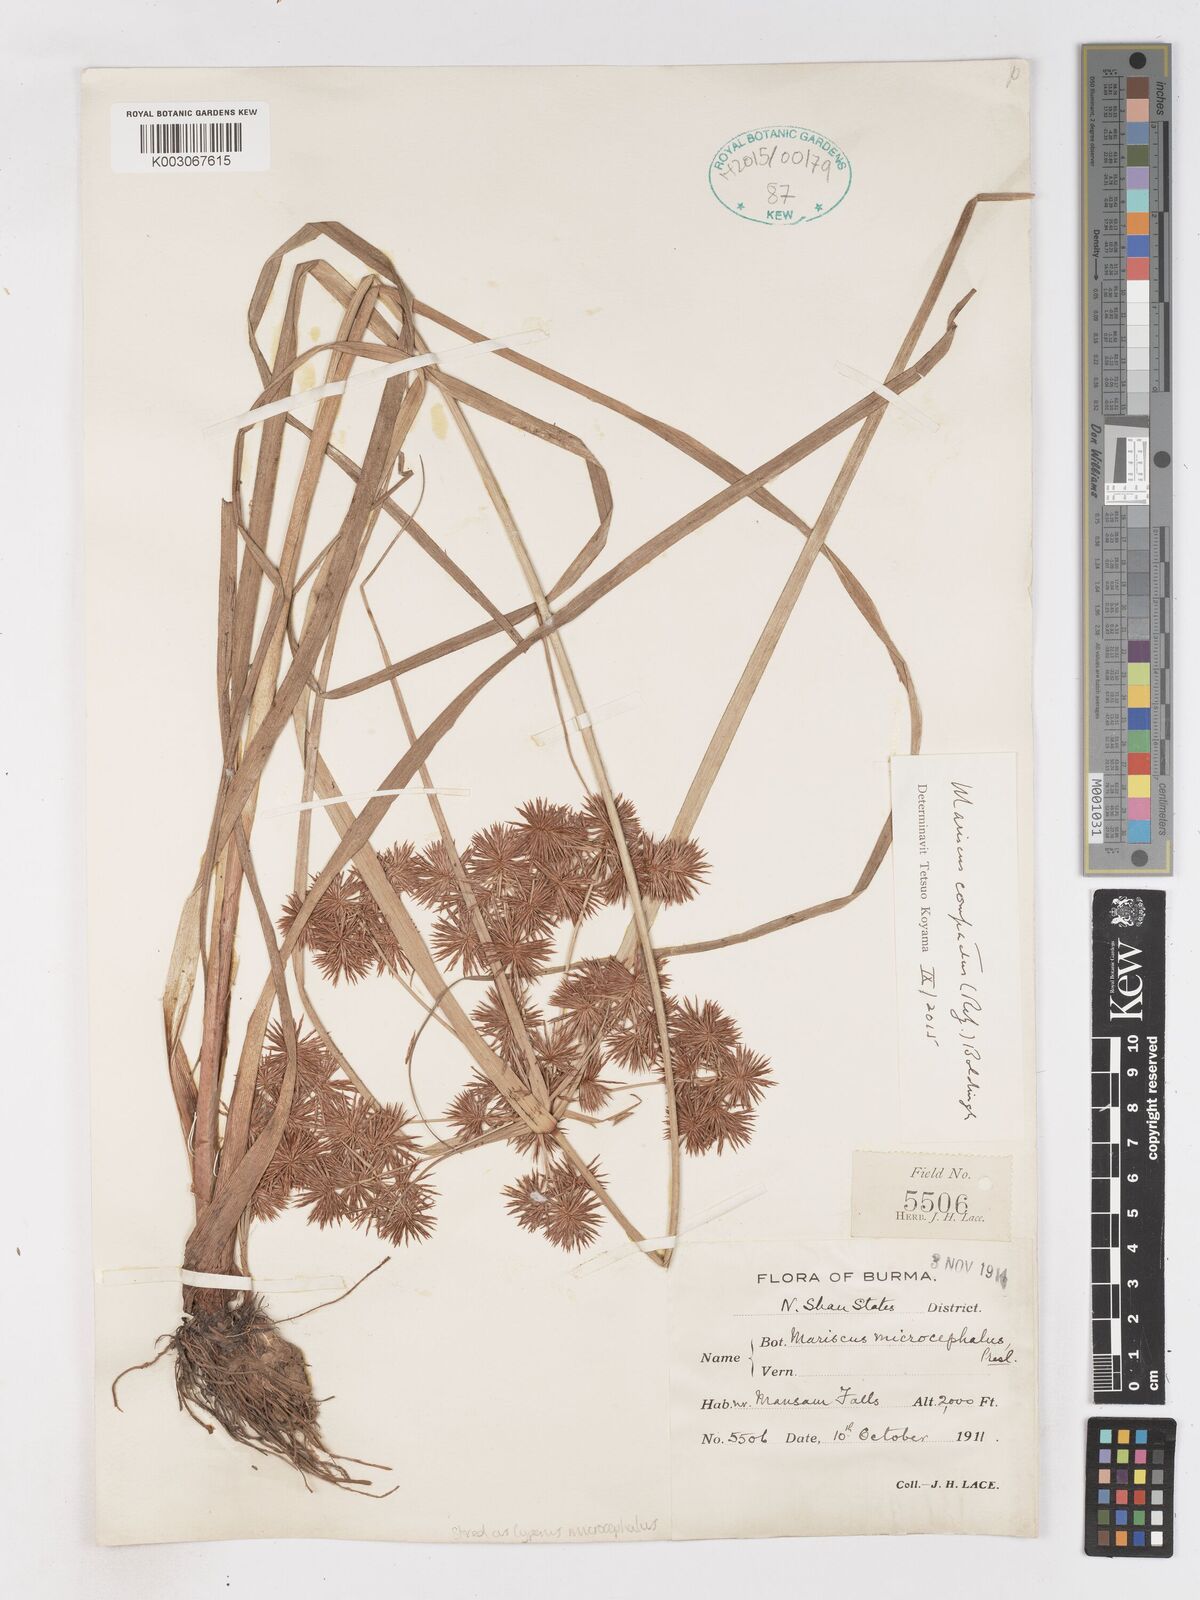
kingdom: Plantae
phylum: Tracheophyta
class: Liliopsida
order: Poales
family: Cyperaceae
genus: Cyperus
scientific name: Cyperus
